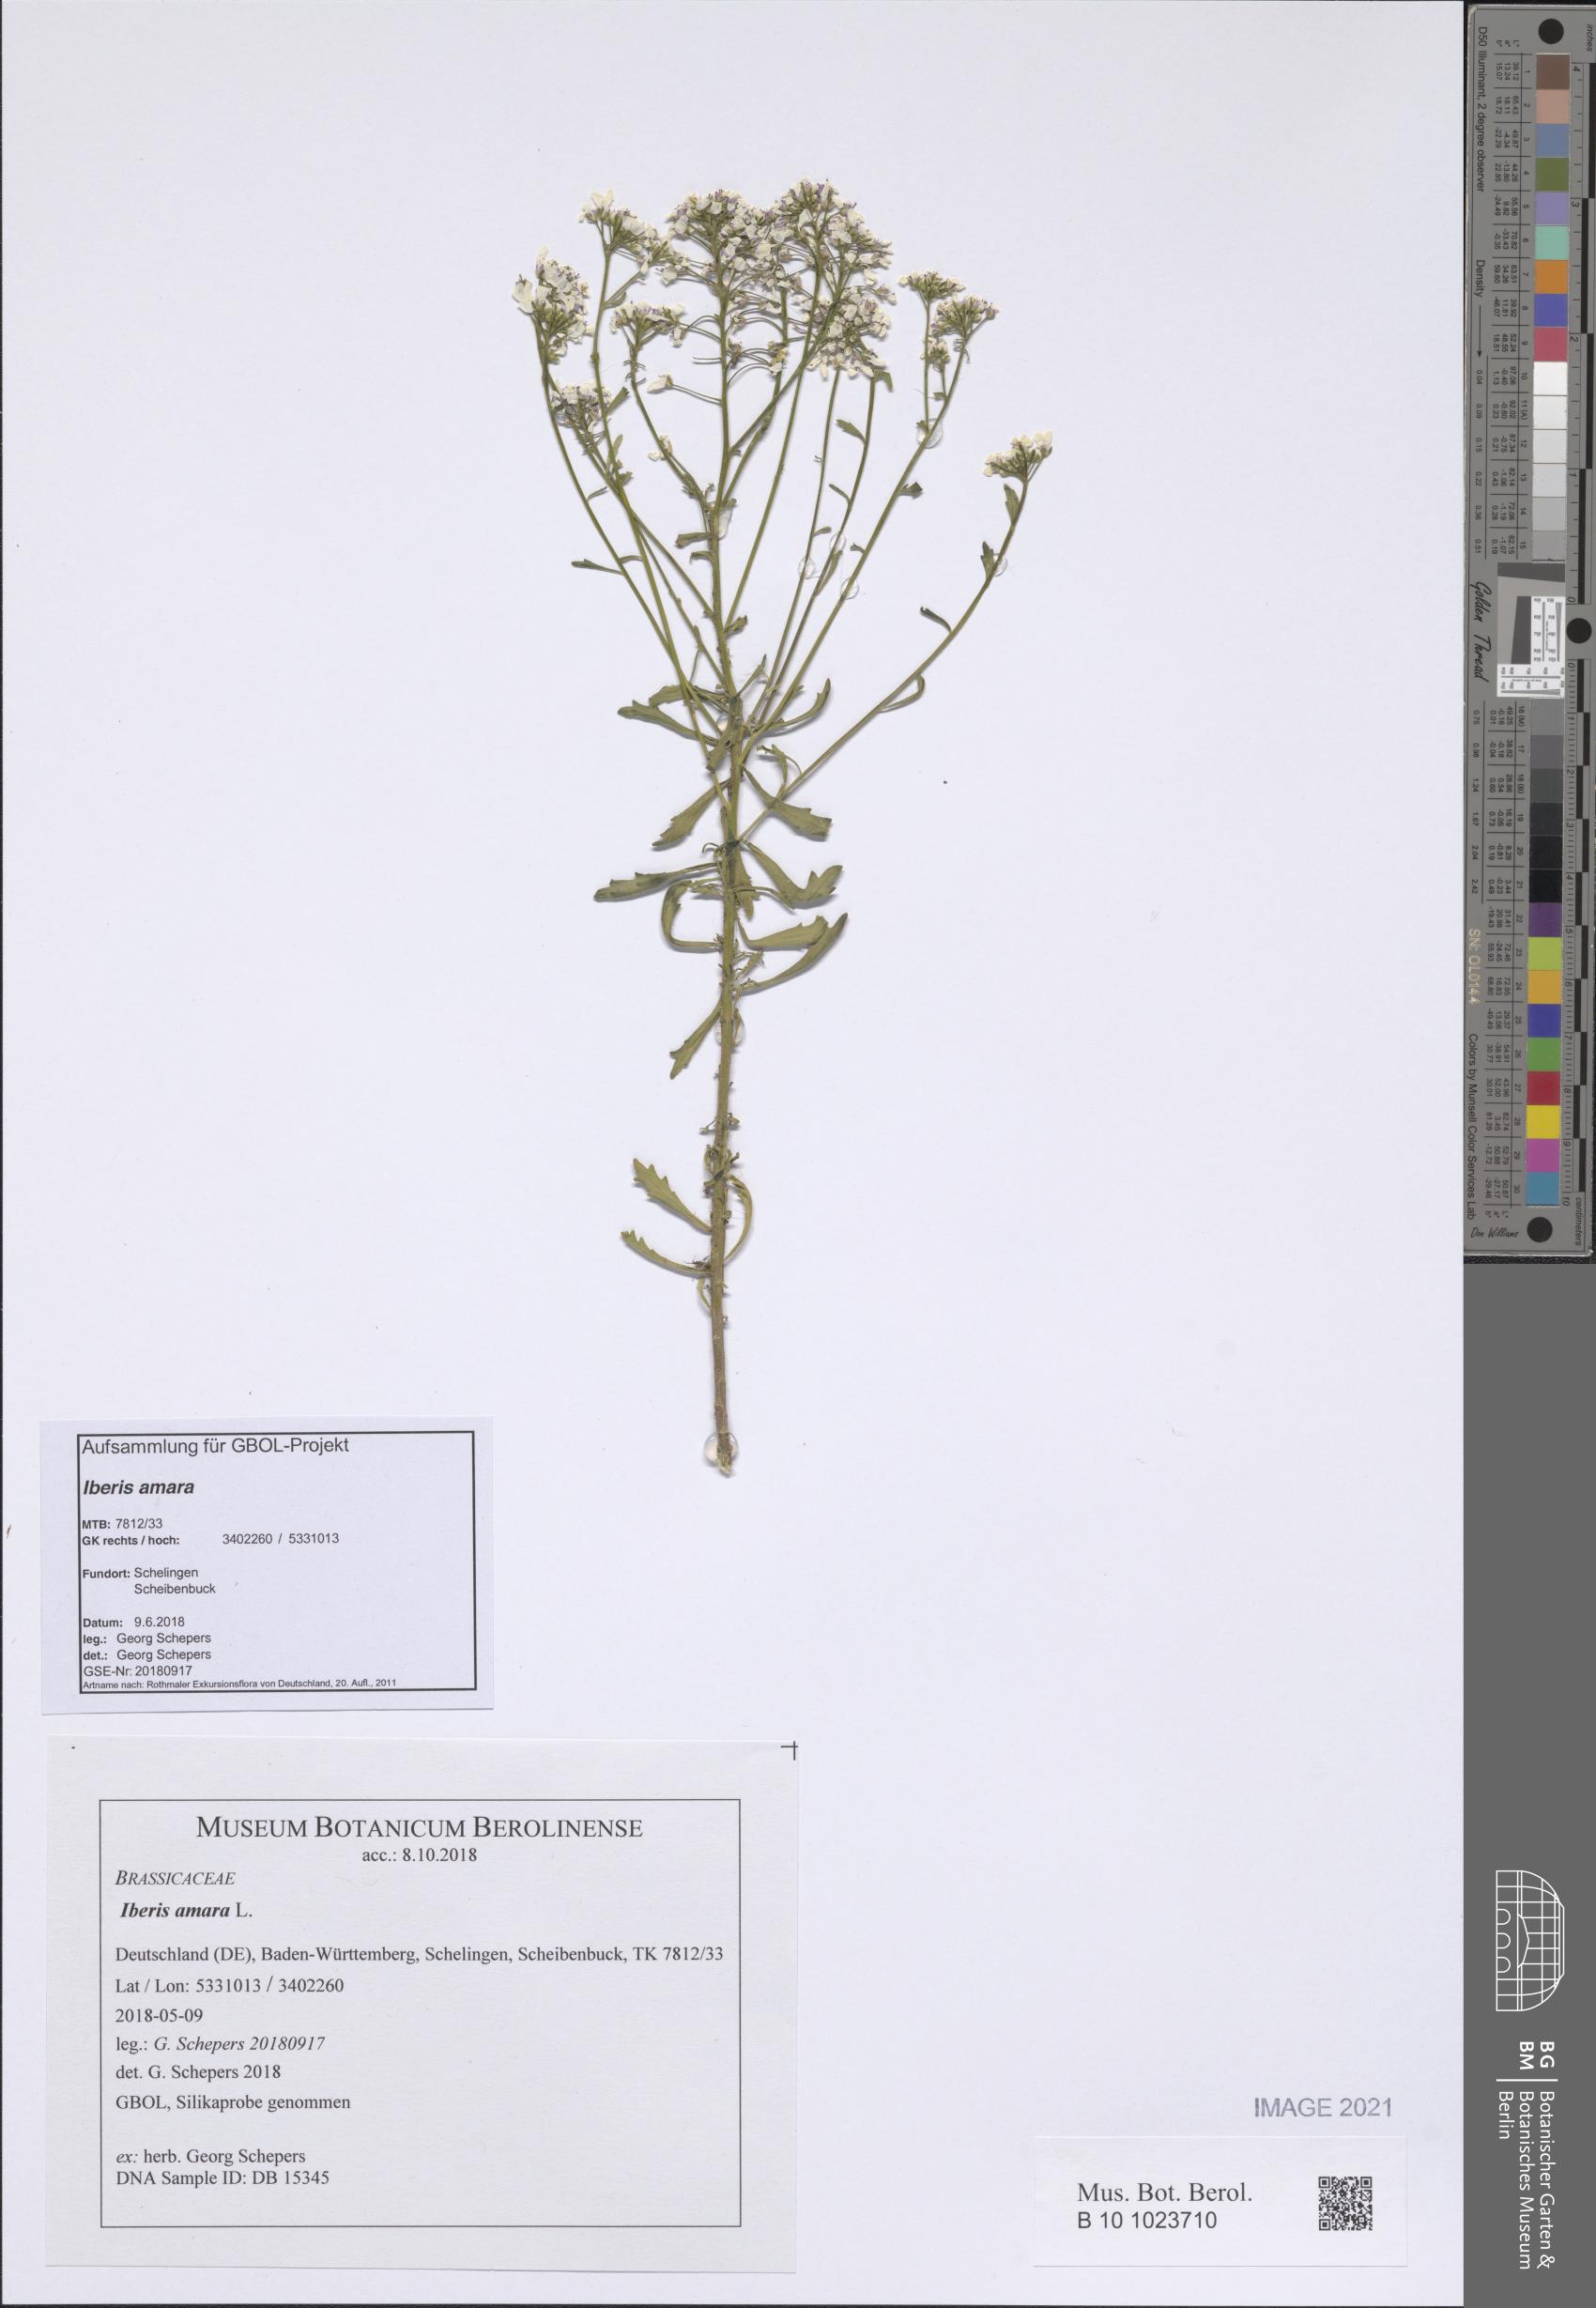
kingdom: Plantae
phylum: Tracheophyta
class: Magnoliopsida
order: Brassicales
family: Brassicaceae
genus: Iberis
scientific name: Iberis amara
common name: Annual candytuft
